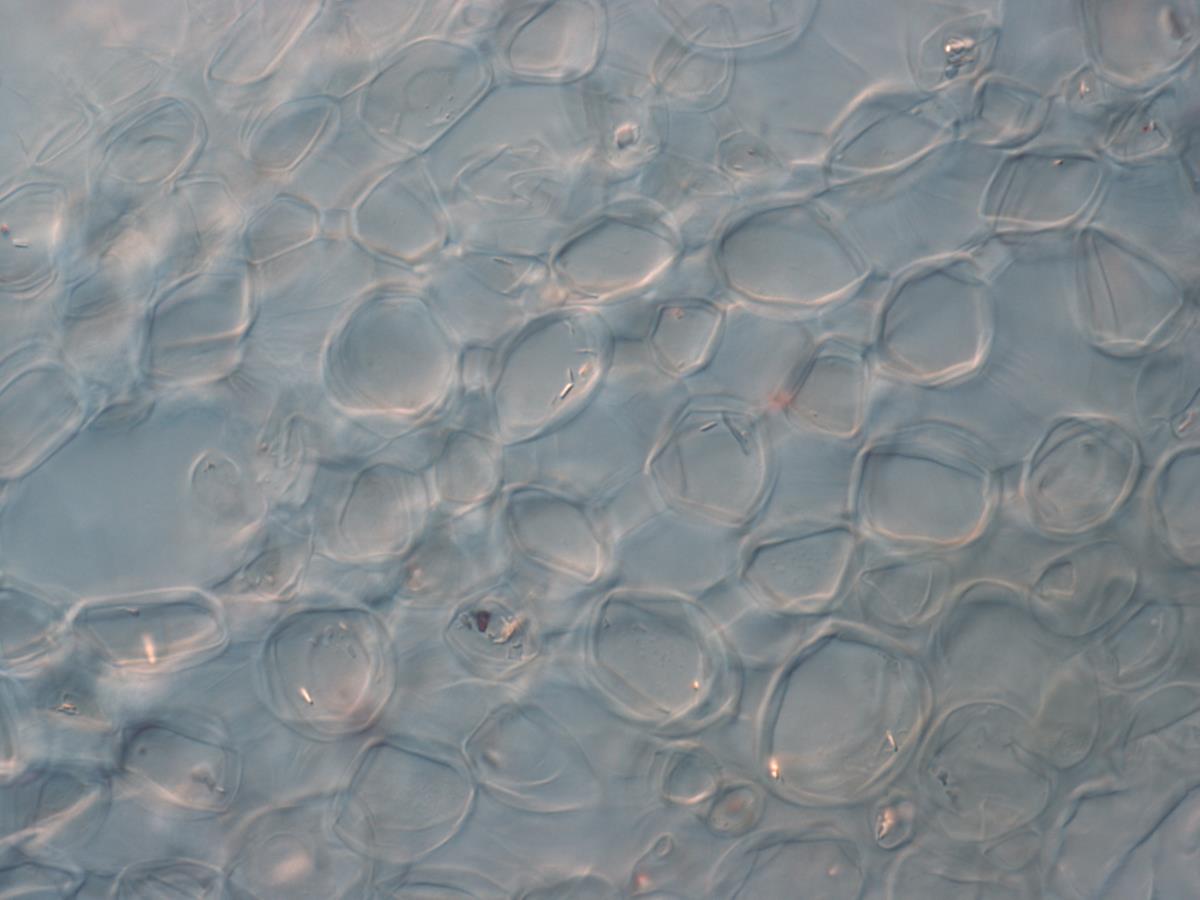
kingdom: Fungi
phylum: Ascomycota
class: Leotiomycetes
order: Helotiales
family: Vibrisseaceae
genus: Chlorovibrissea
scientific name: Chlorovibrissea
